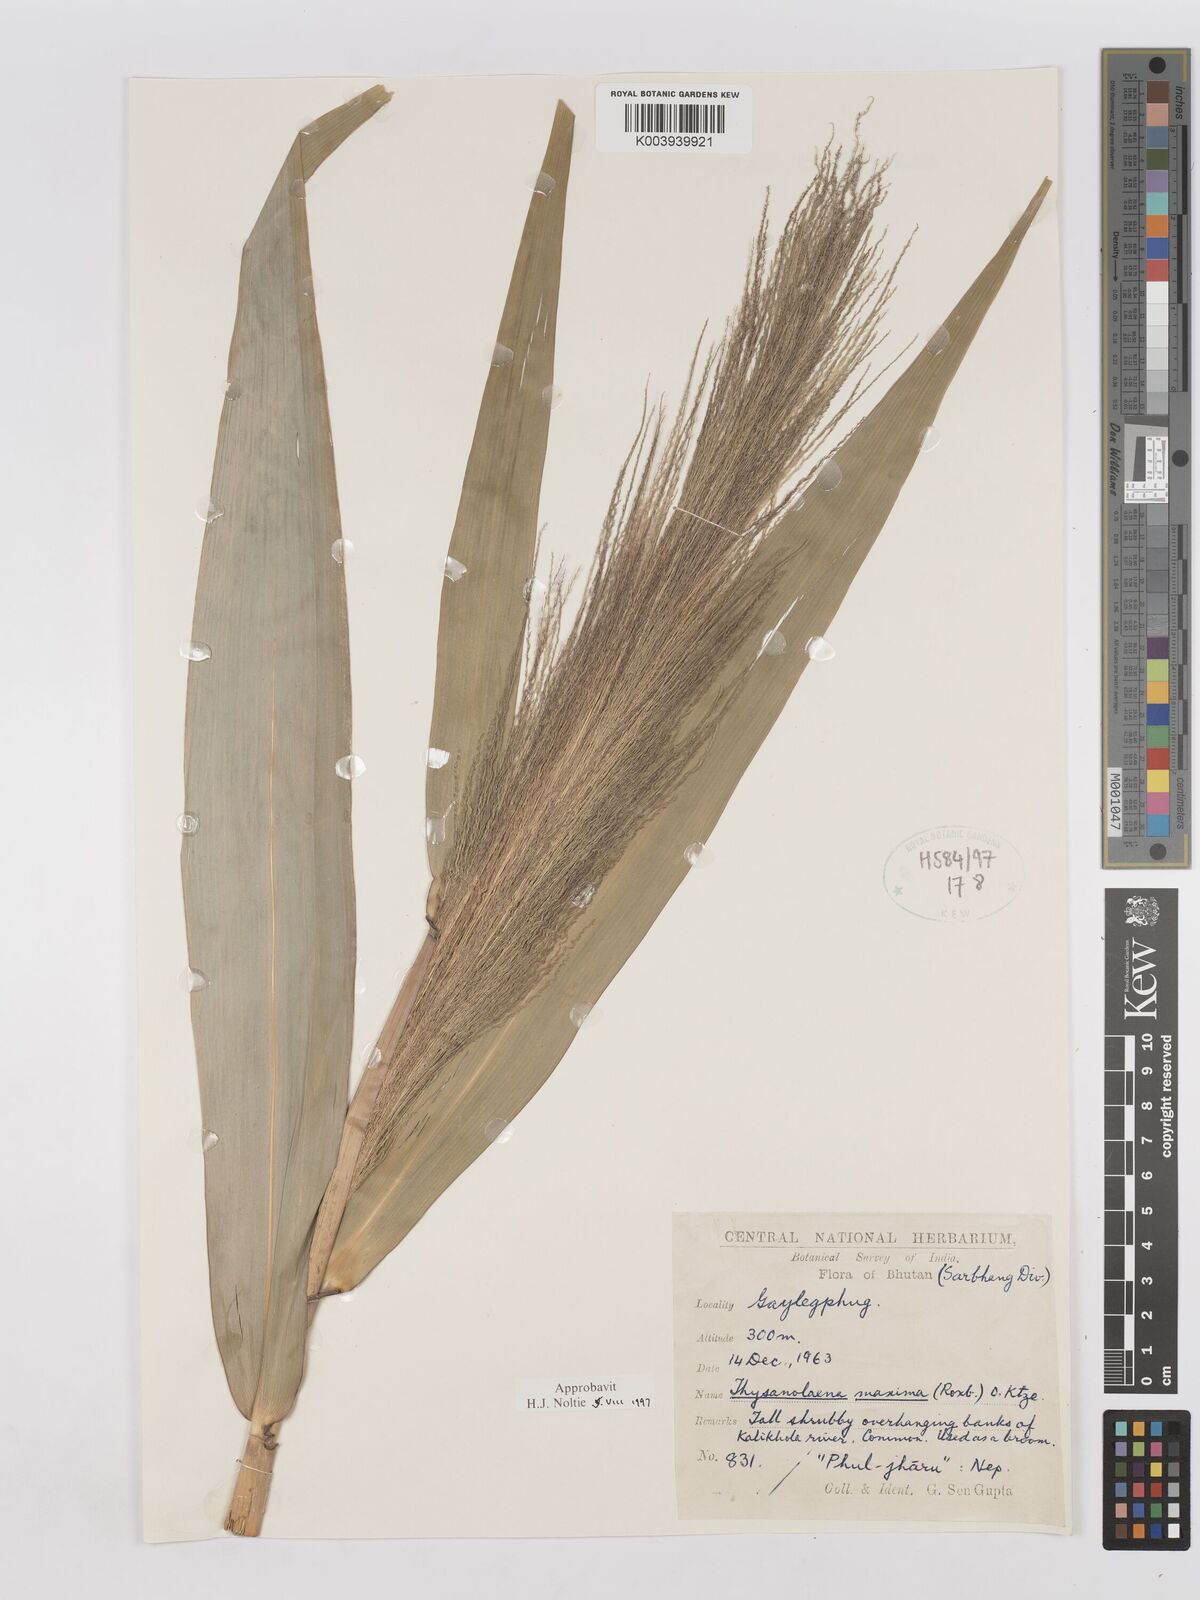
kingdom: Plantae
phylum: Tracheophyta
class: Liliopsida
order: Poales
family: Poaceae
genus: Thysanolaena
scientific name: Thysanolaena latifolia
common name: Tiger grass
